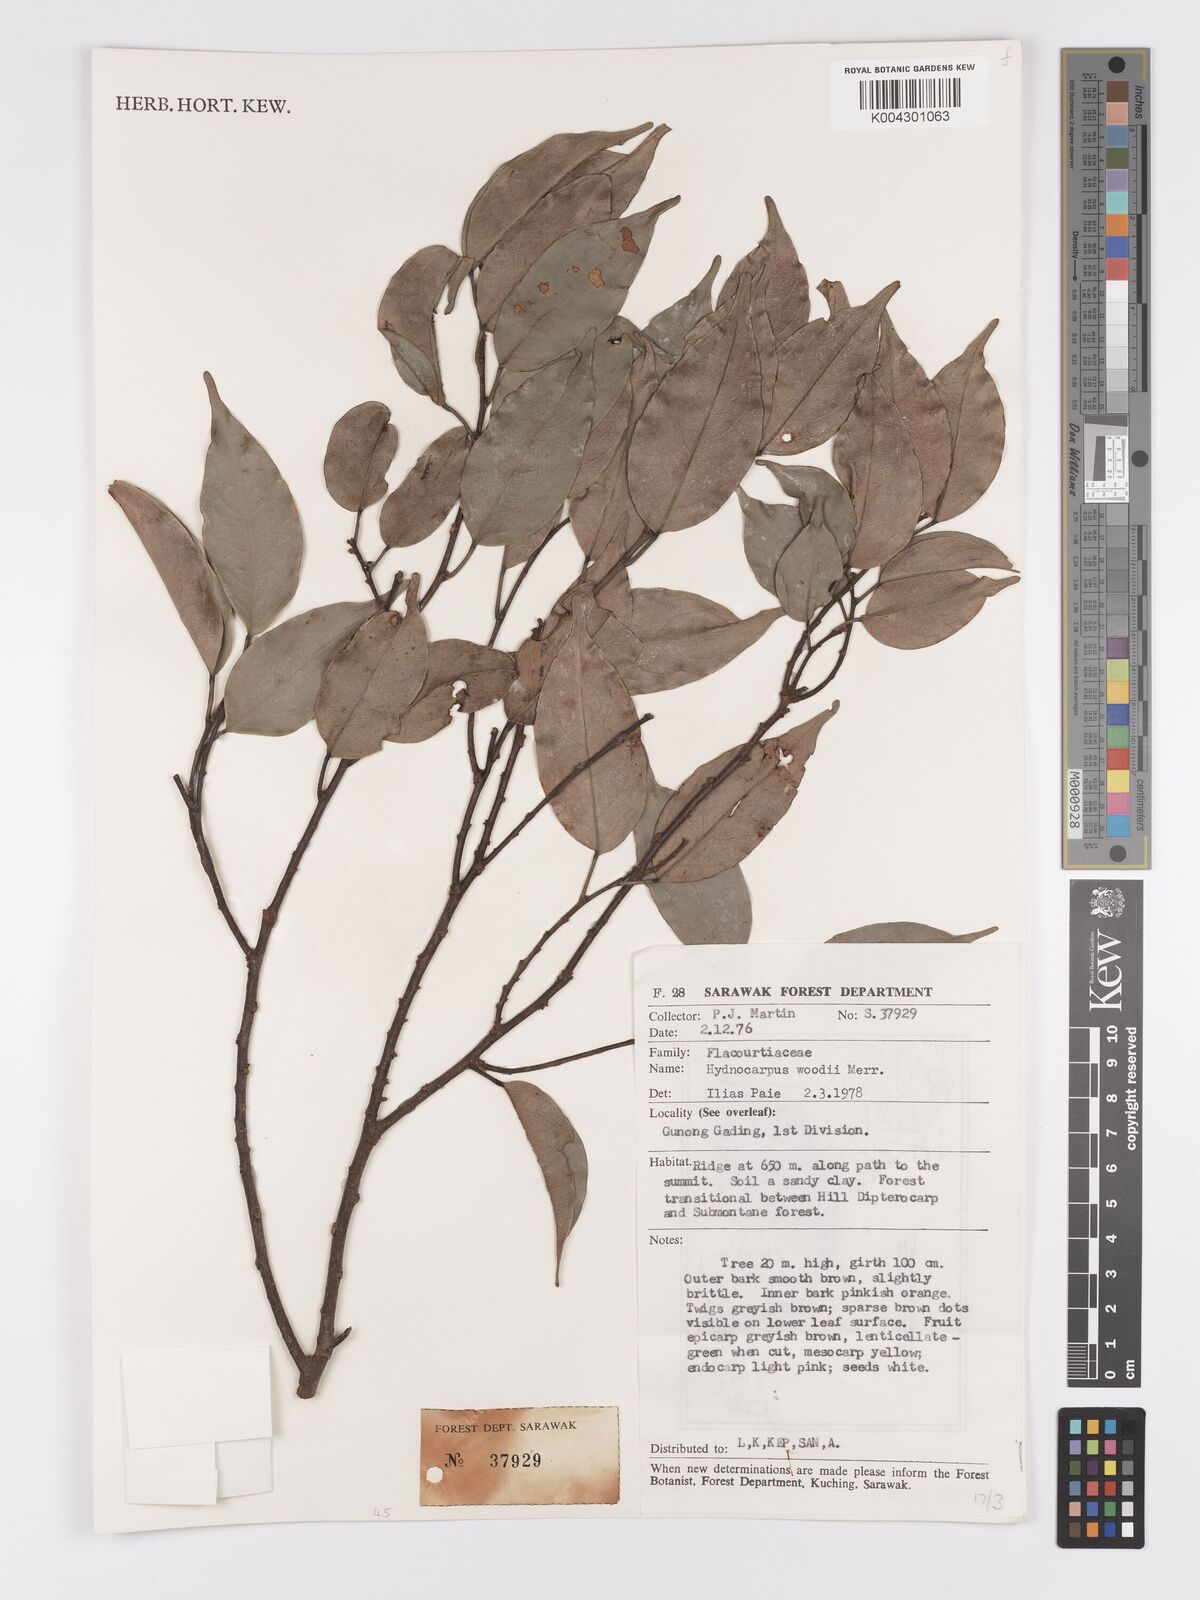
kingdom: Plantae
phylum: Tracheophyta
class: Magnoliopsida
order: Malpighiales
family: Achariaceae
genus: Hydnocarpus
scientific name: Hydnocarpus woodii
